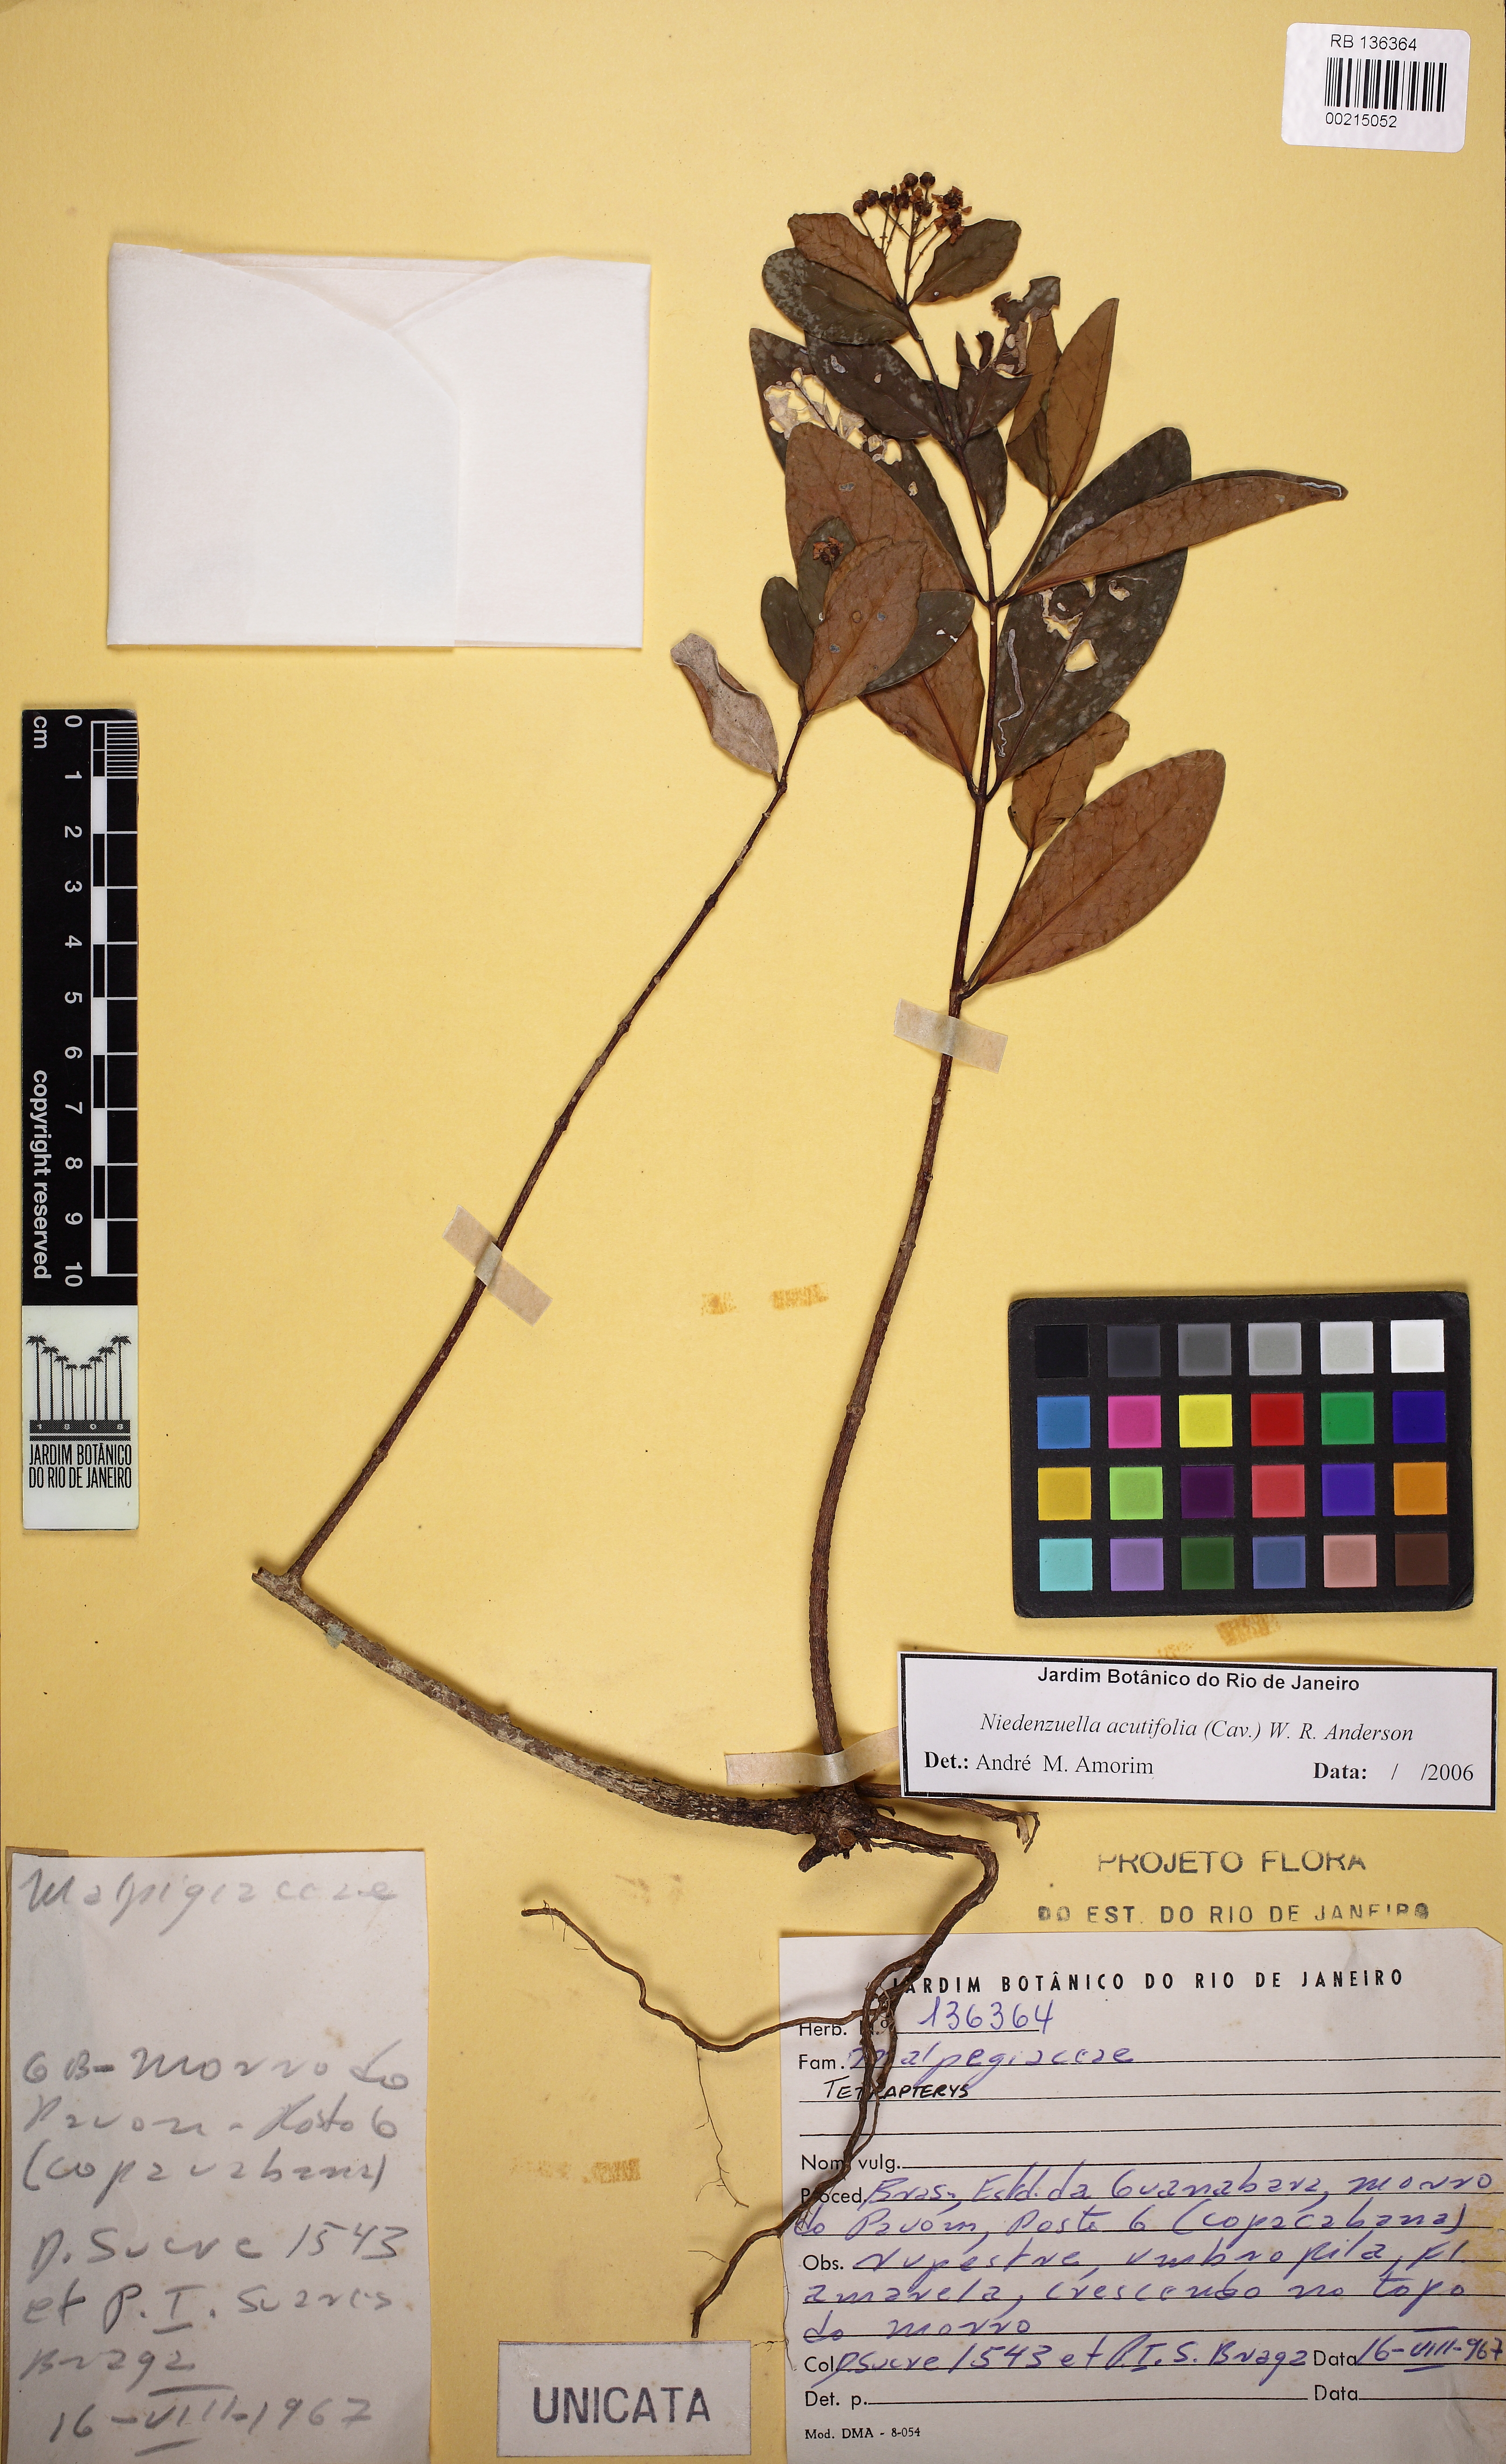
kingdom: Plantae
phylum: Tracheophyta
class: Magnoliopsida
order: Malpighiales
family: Malpighiaceae
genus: Niedenzuella
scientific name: Niedenzuella acutifolia
